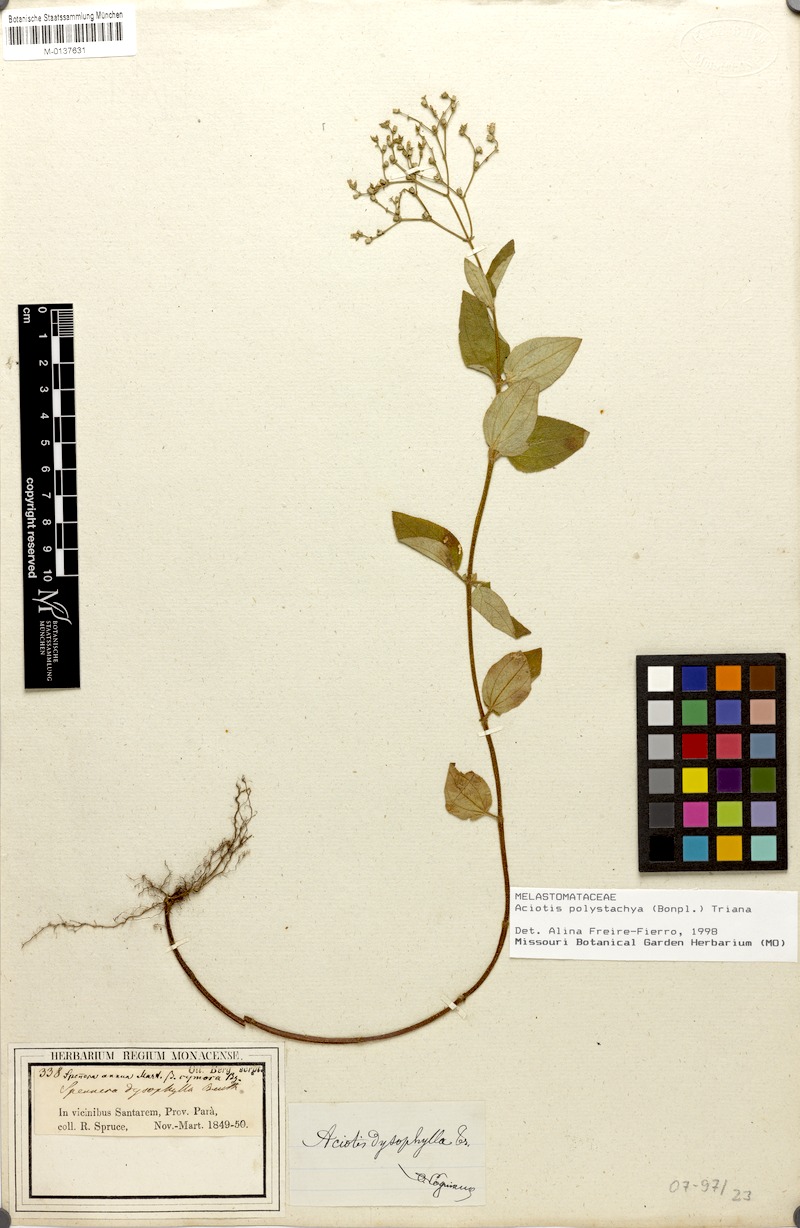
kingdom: Plantae
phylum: Tracheophyta
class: Magnoliopsida
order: Myrtales
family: Melastomataceae
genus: Aciotis
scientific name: Aciotis polystachya
